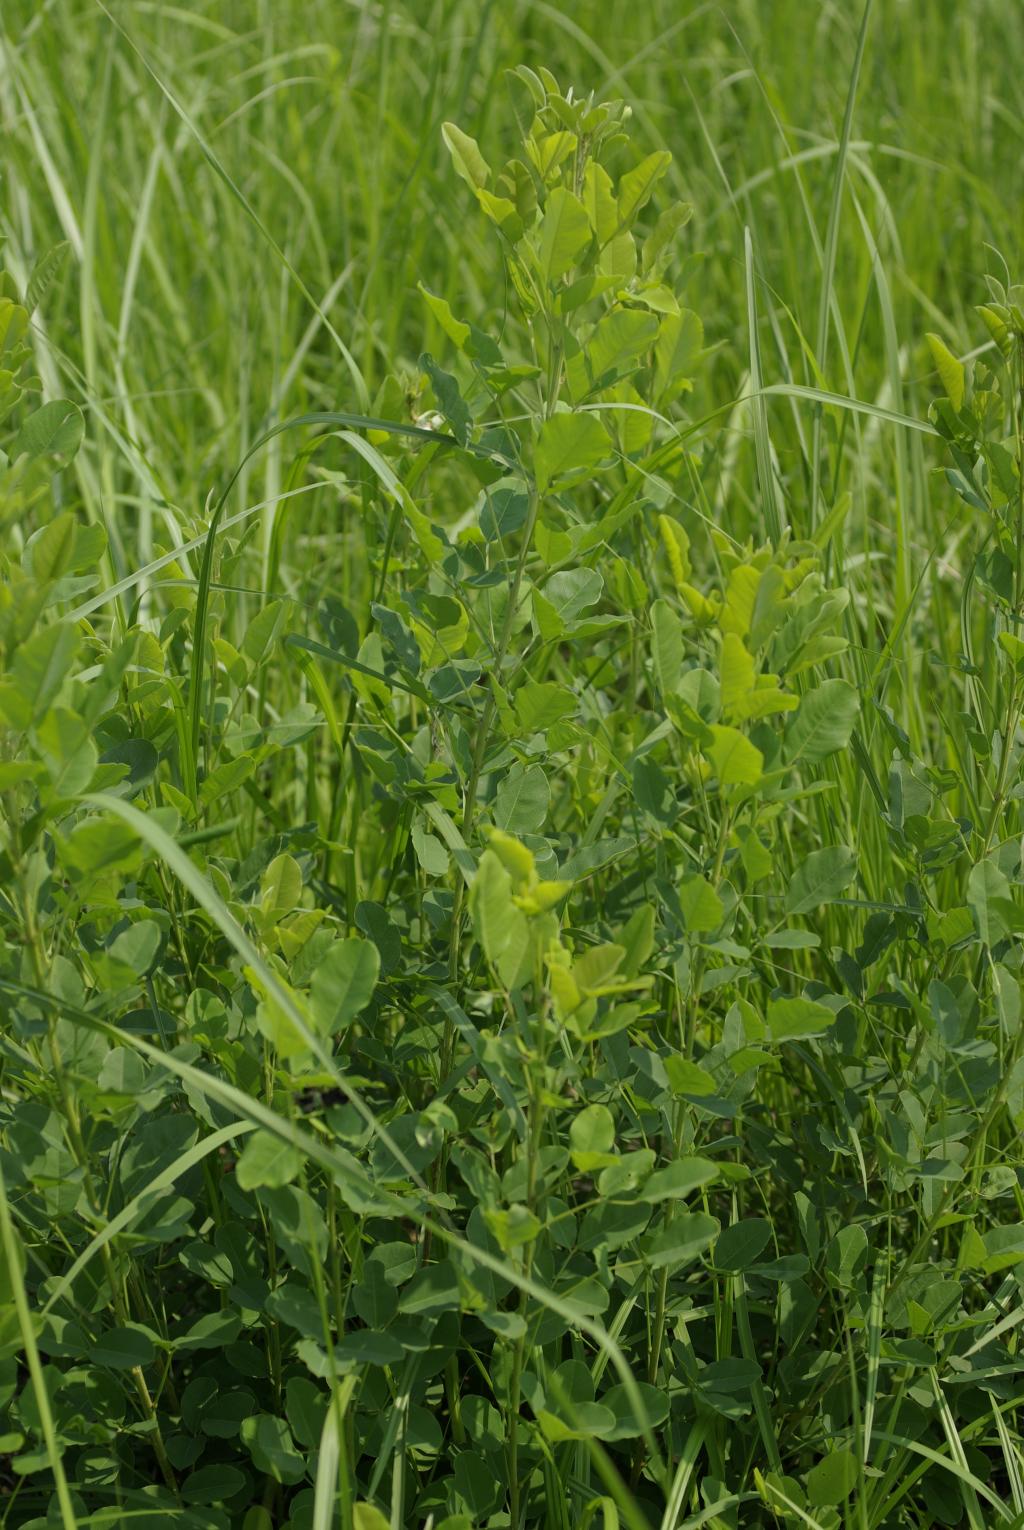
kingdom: Plantae
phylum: Tracheophyta
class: Magnoliopsida
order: Fabales
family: Fabaceae
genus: Lespedeza
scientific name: Lespedeza thunbergii
